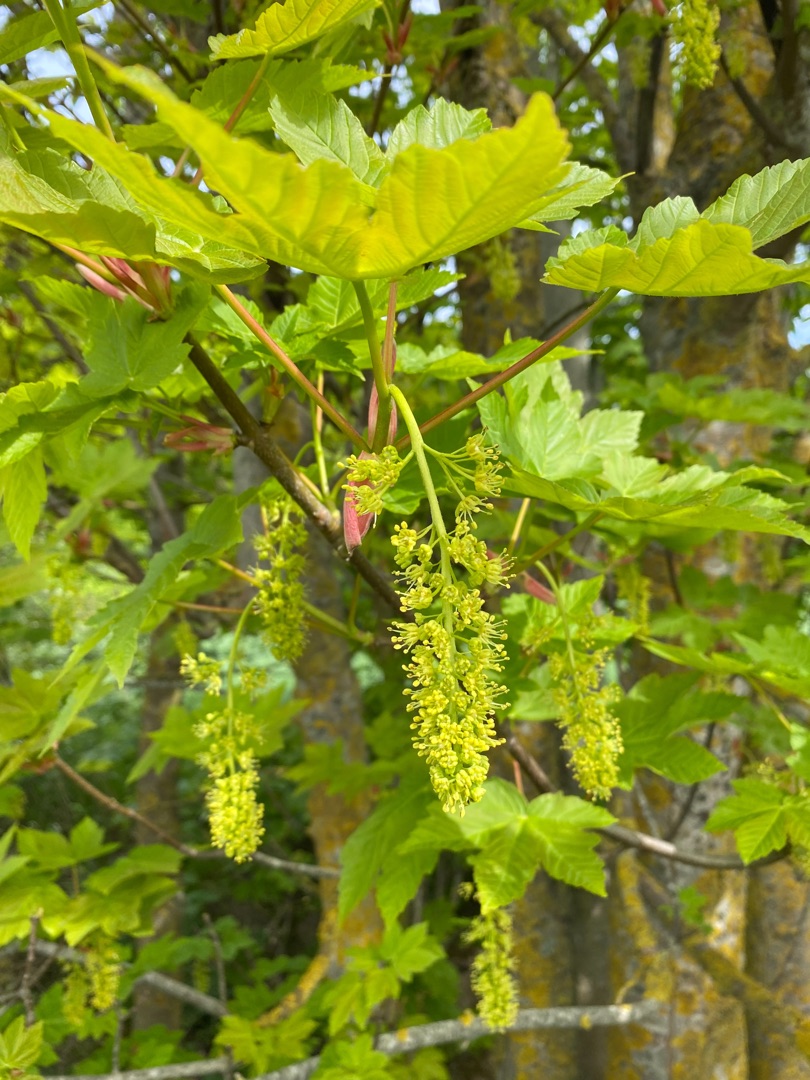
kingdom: Plantae
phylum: Tracheophyta
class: Magnoliopsida
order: Sapindales
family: Sapindaceae
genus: Acer
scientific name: Acer pseudoplatanus
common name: Ahorn
